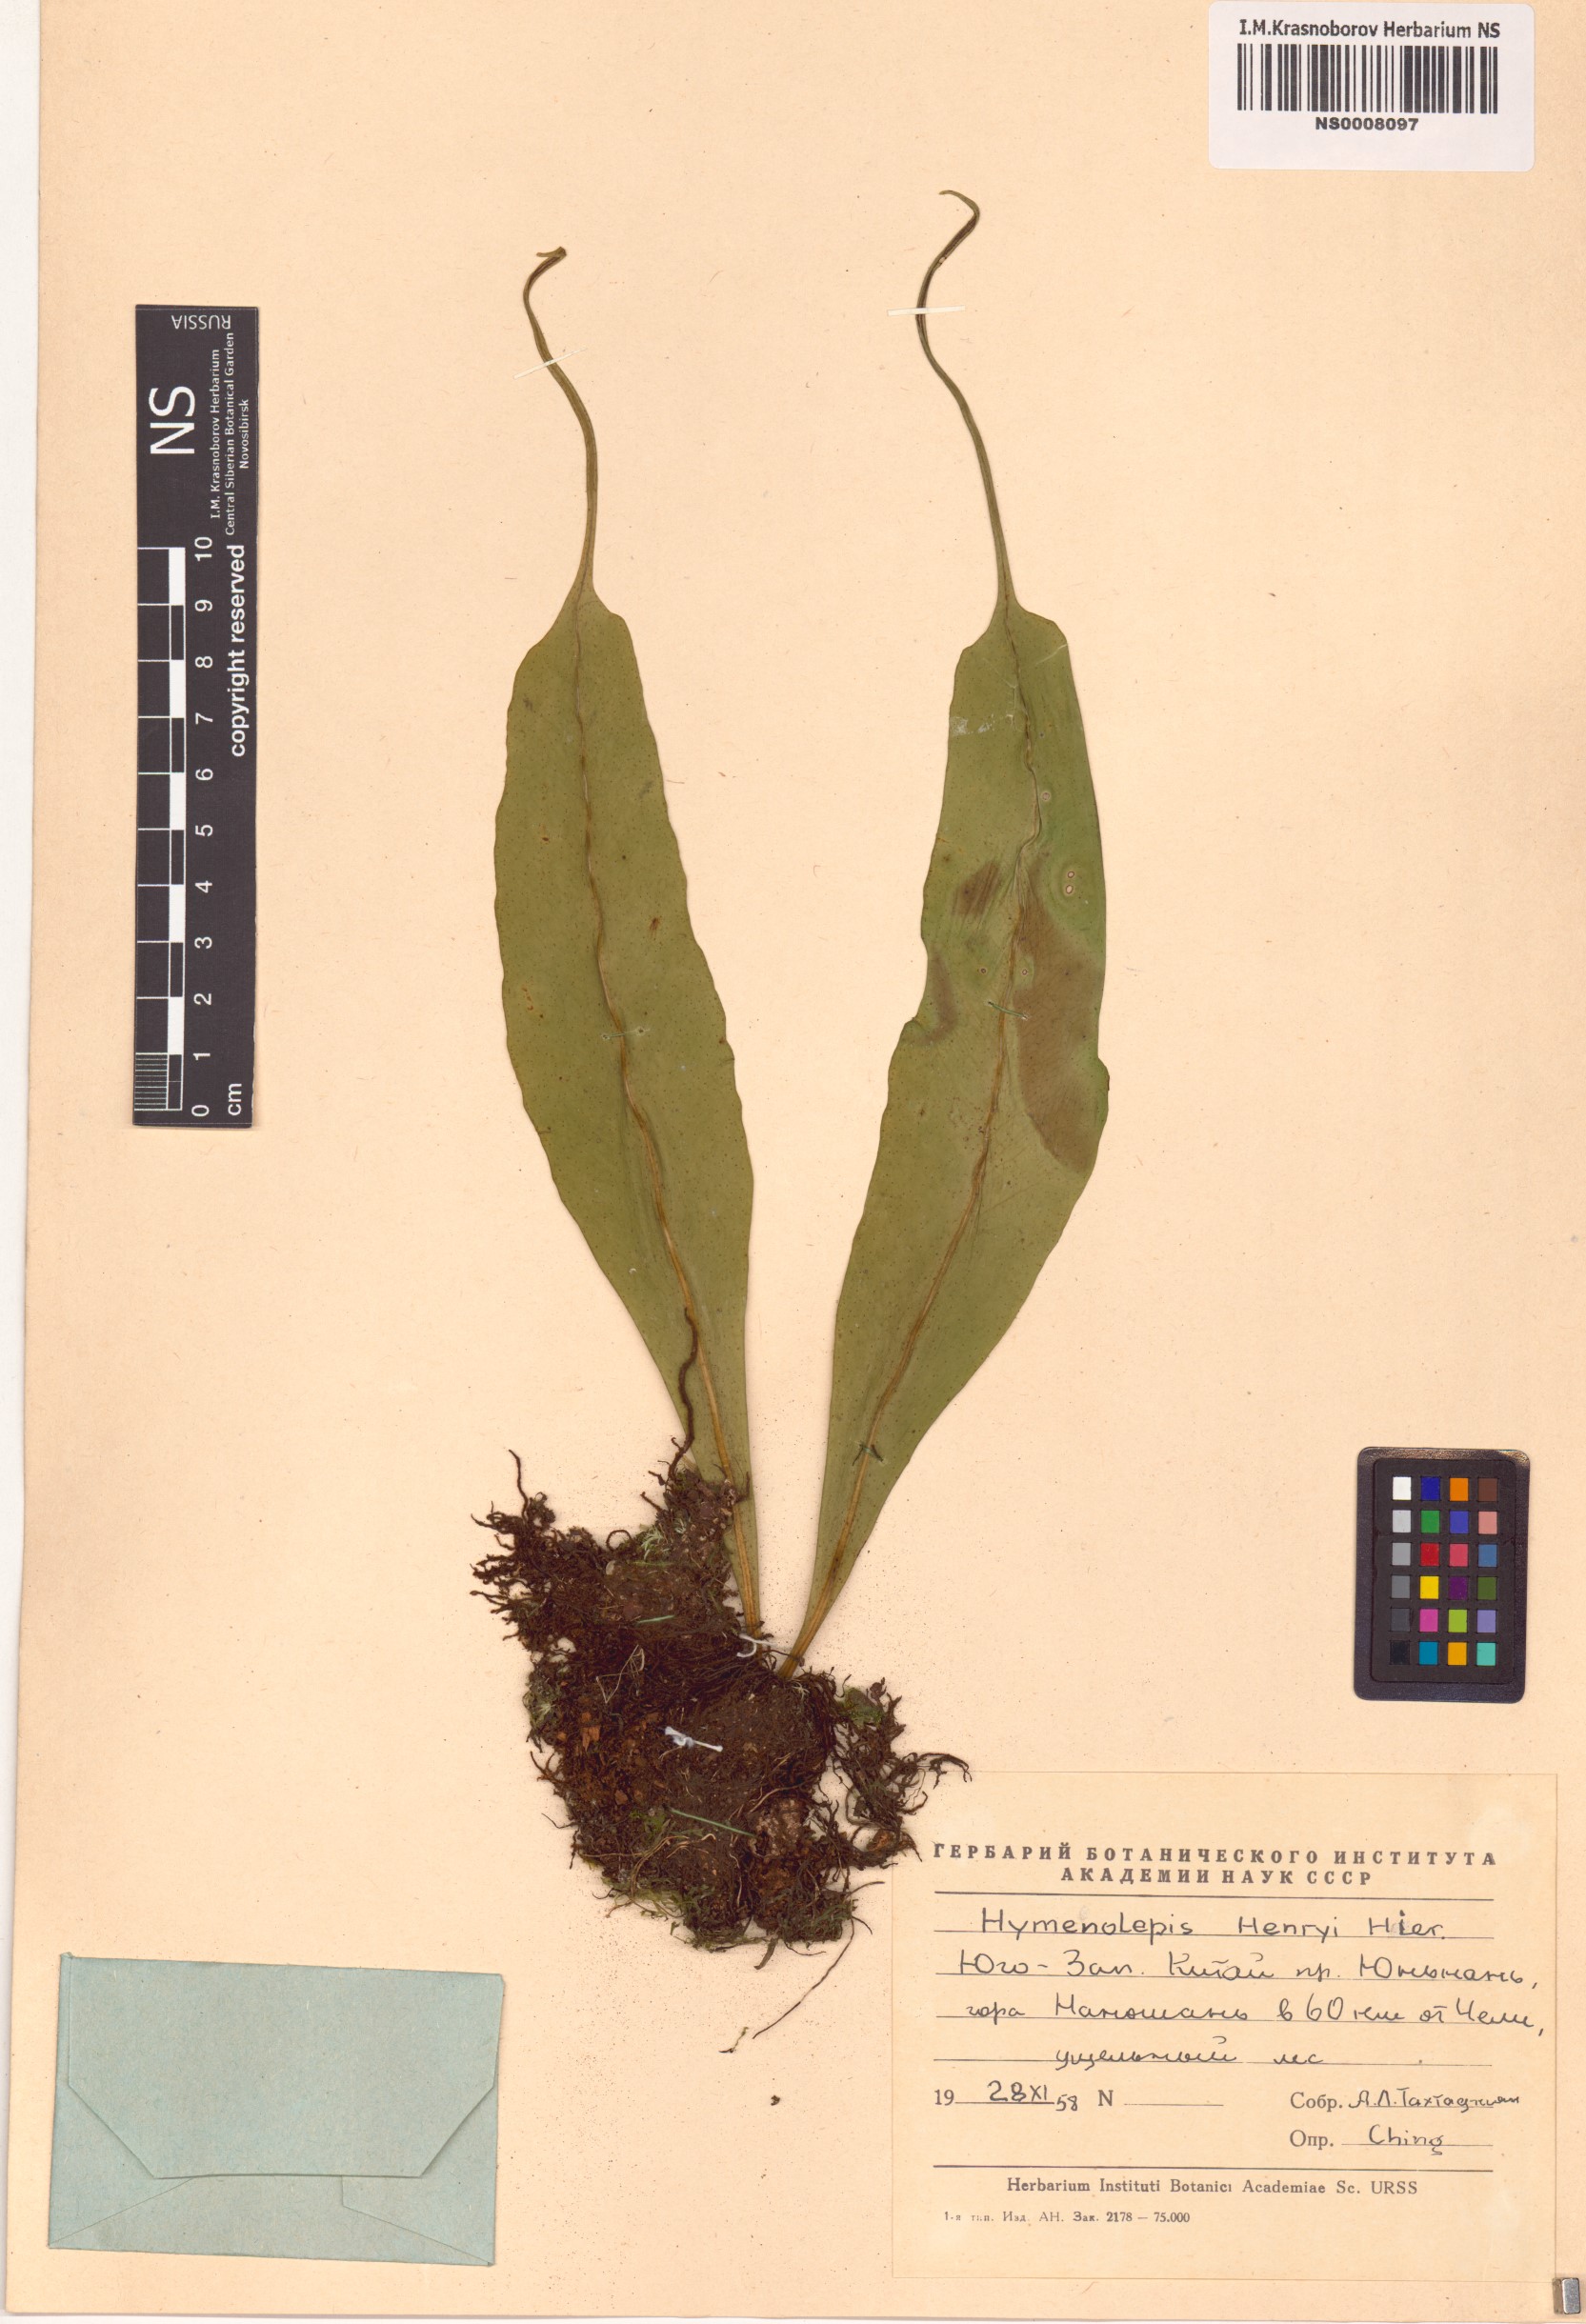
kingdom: Plantae
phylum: Tracheophyta
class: Polypodiopsida
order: Polypodiales
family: Polypodiaceae
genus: Lepisorus
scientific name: Lepisorus henryi
